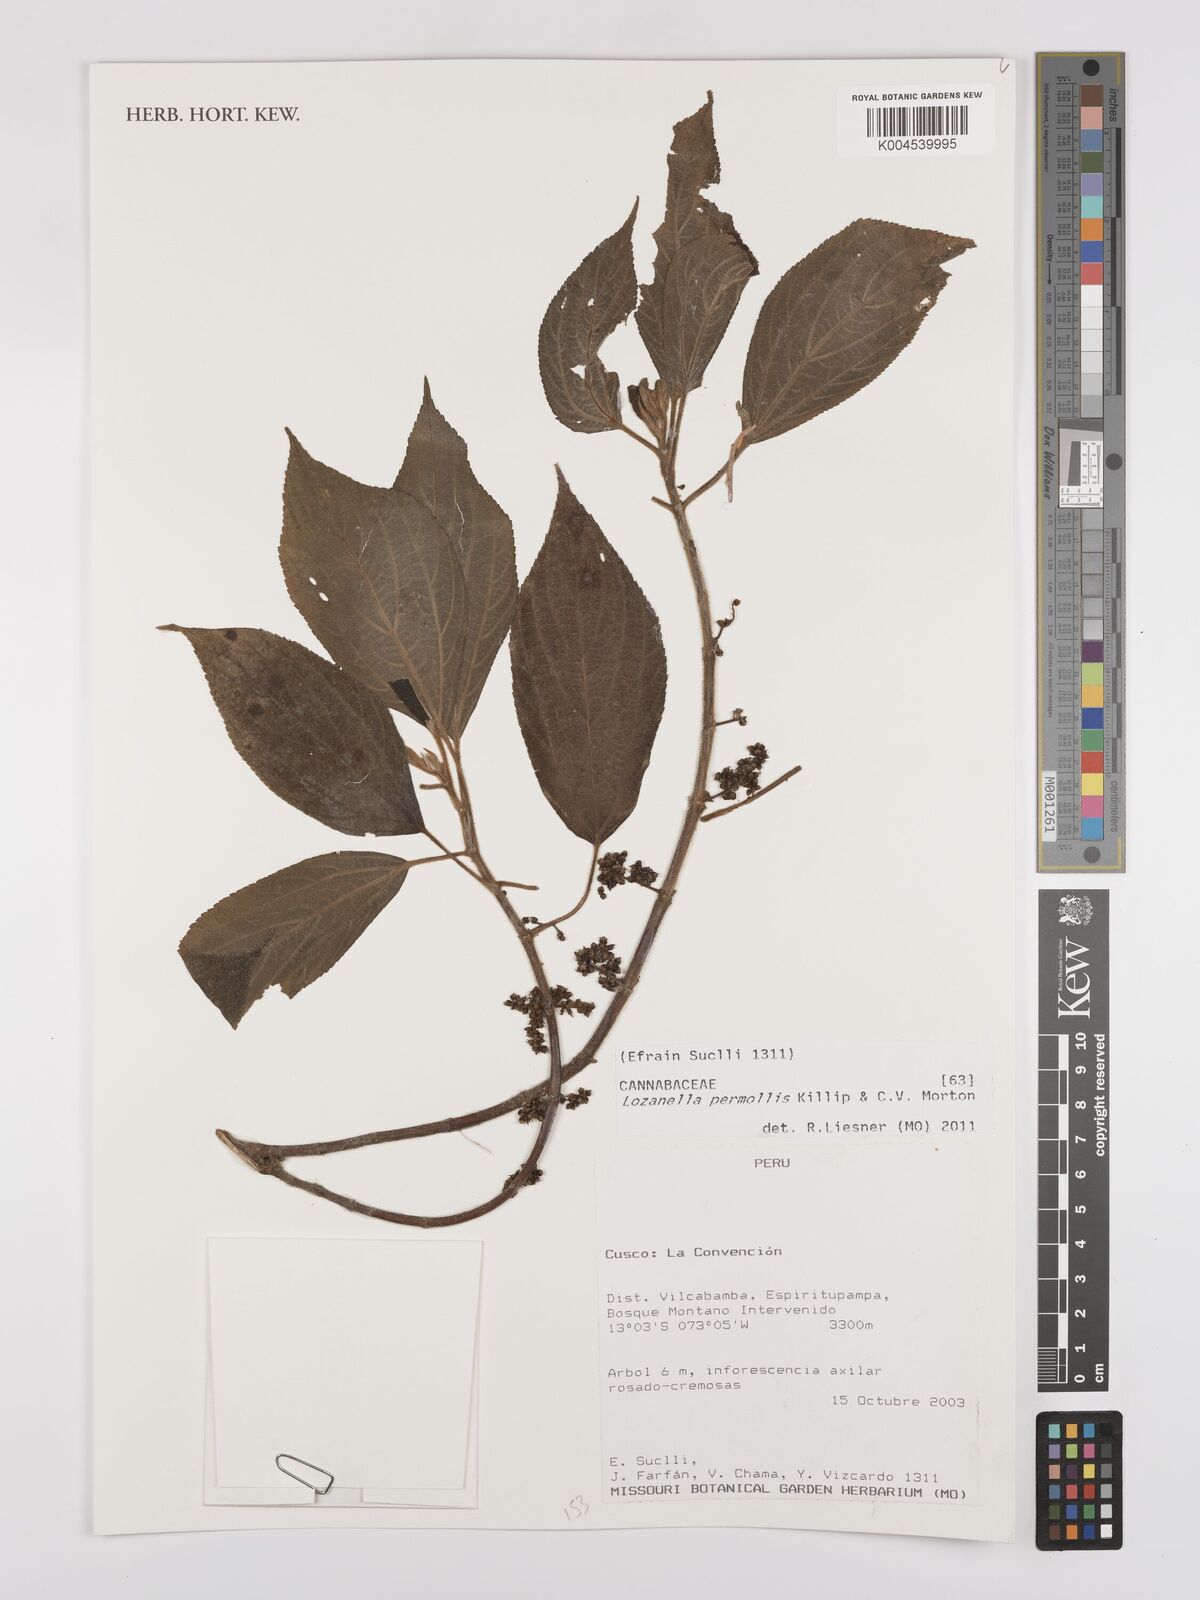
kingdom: Plantae
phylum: Tracheophyta
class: Magnoliopsida
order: Rosales
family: Cannabaceae
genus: Lozanella
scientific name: Lozanella permollis
